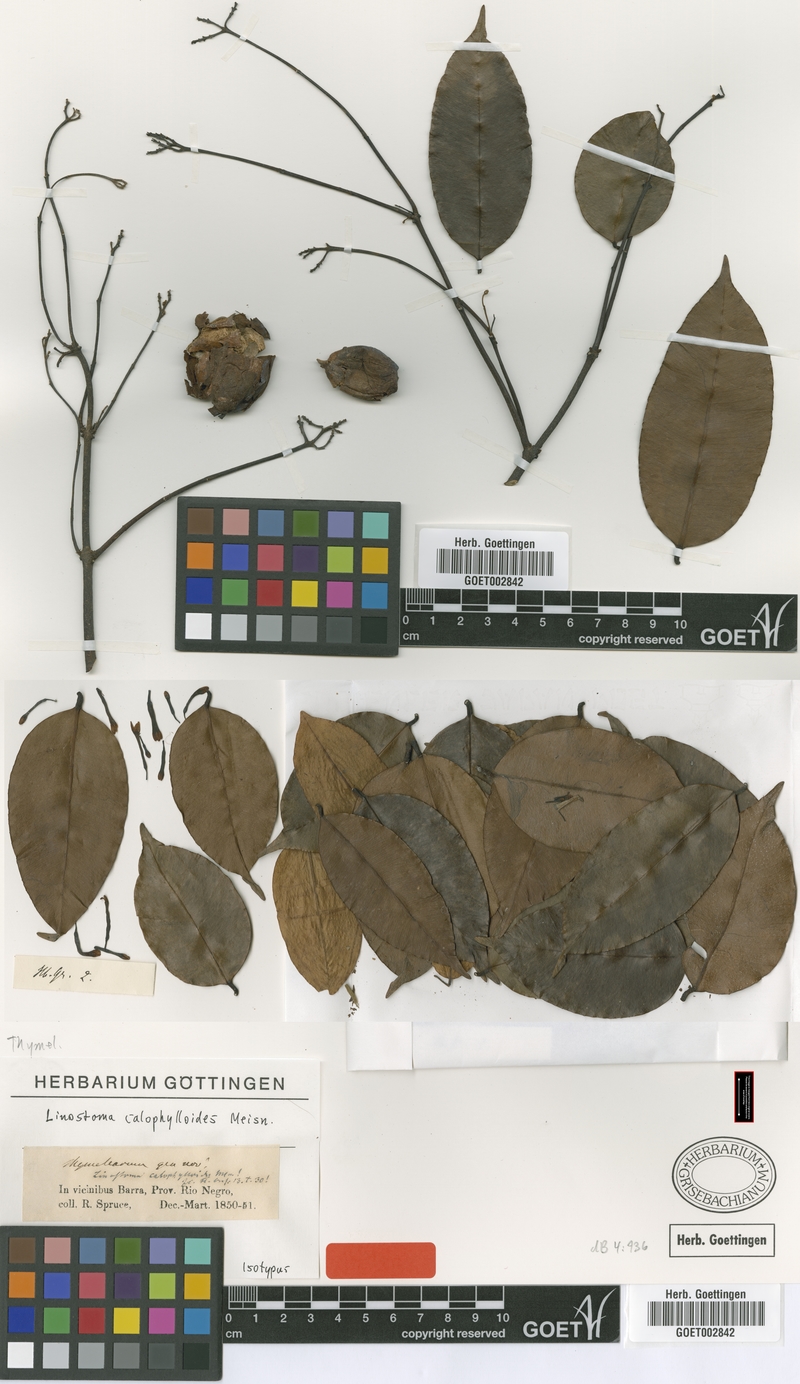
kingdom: Plantae
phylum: Tracheophyta
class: Magnoliopsida
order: Malvales
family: Thymelaeaceae
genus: Lophostoma
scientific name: Lophostoma calophylloides
